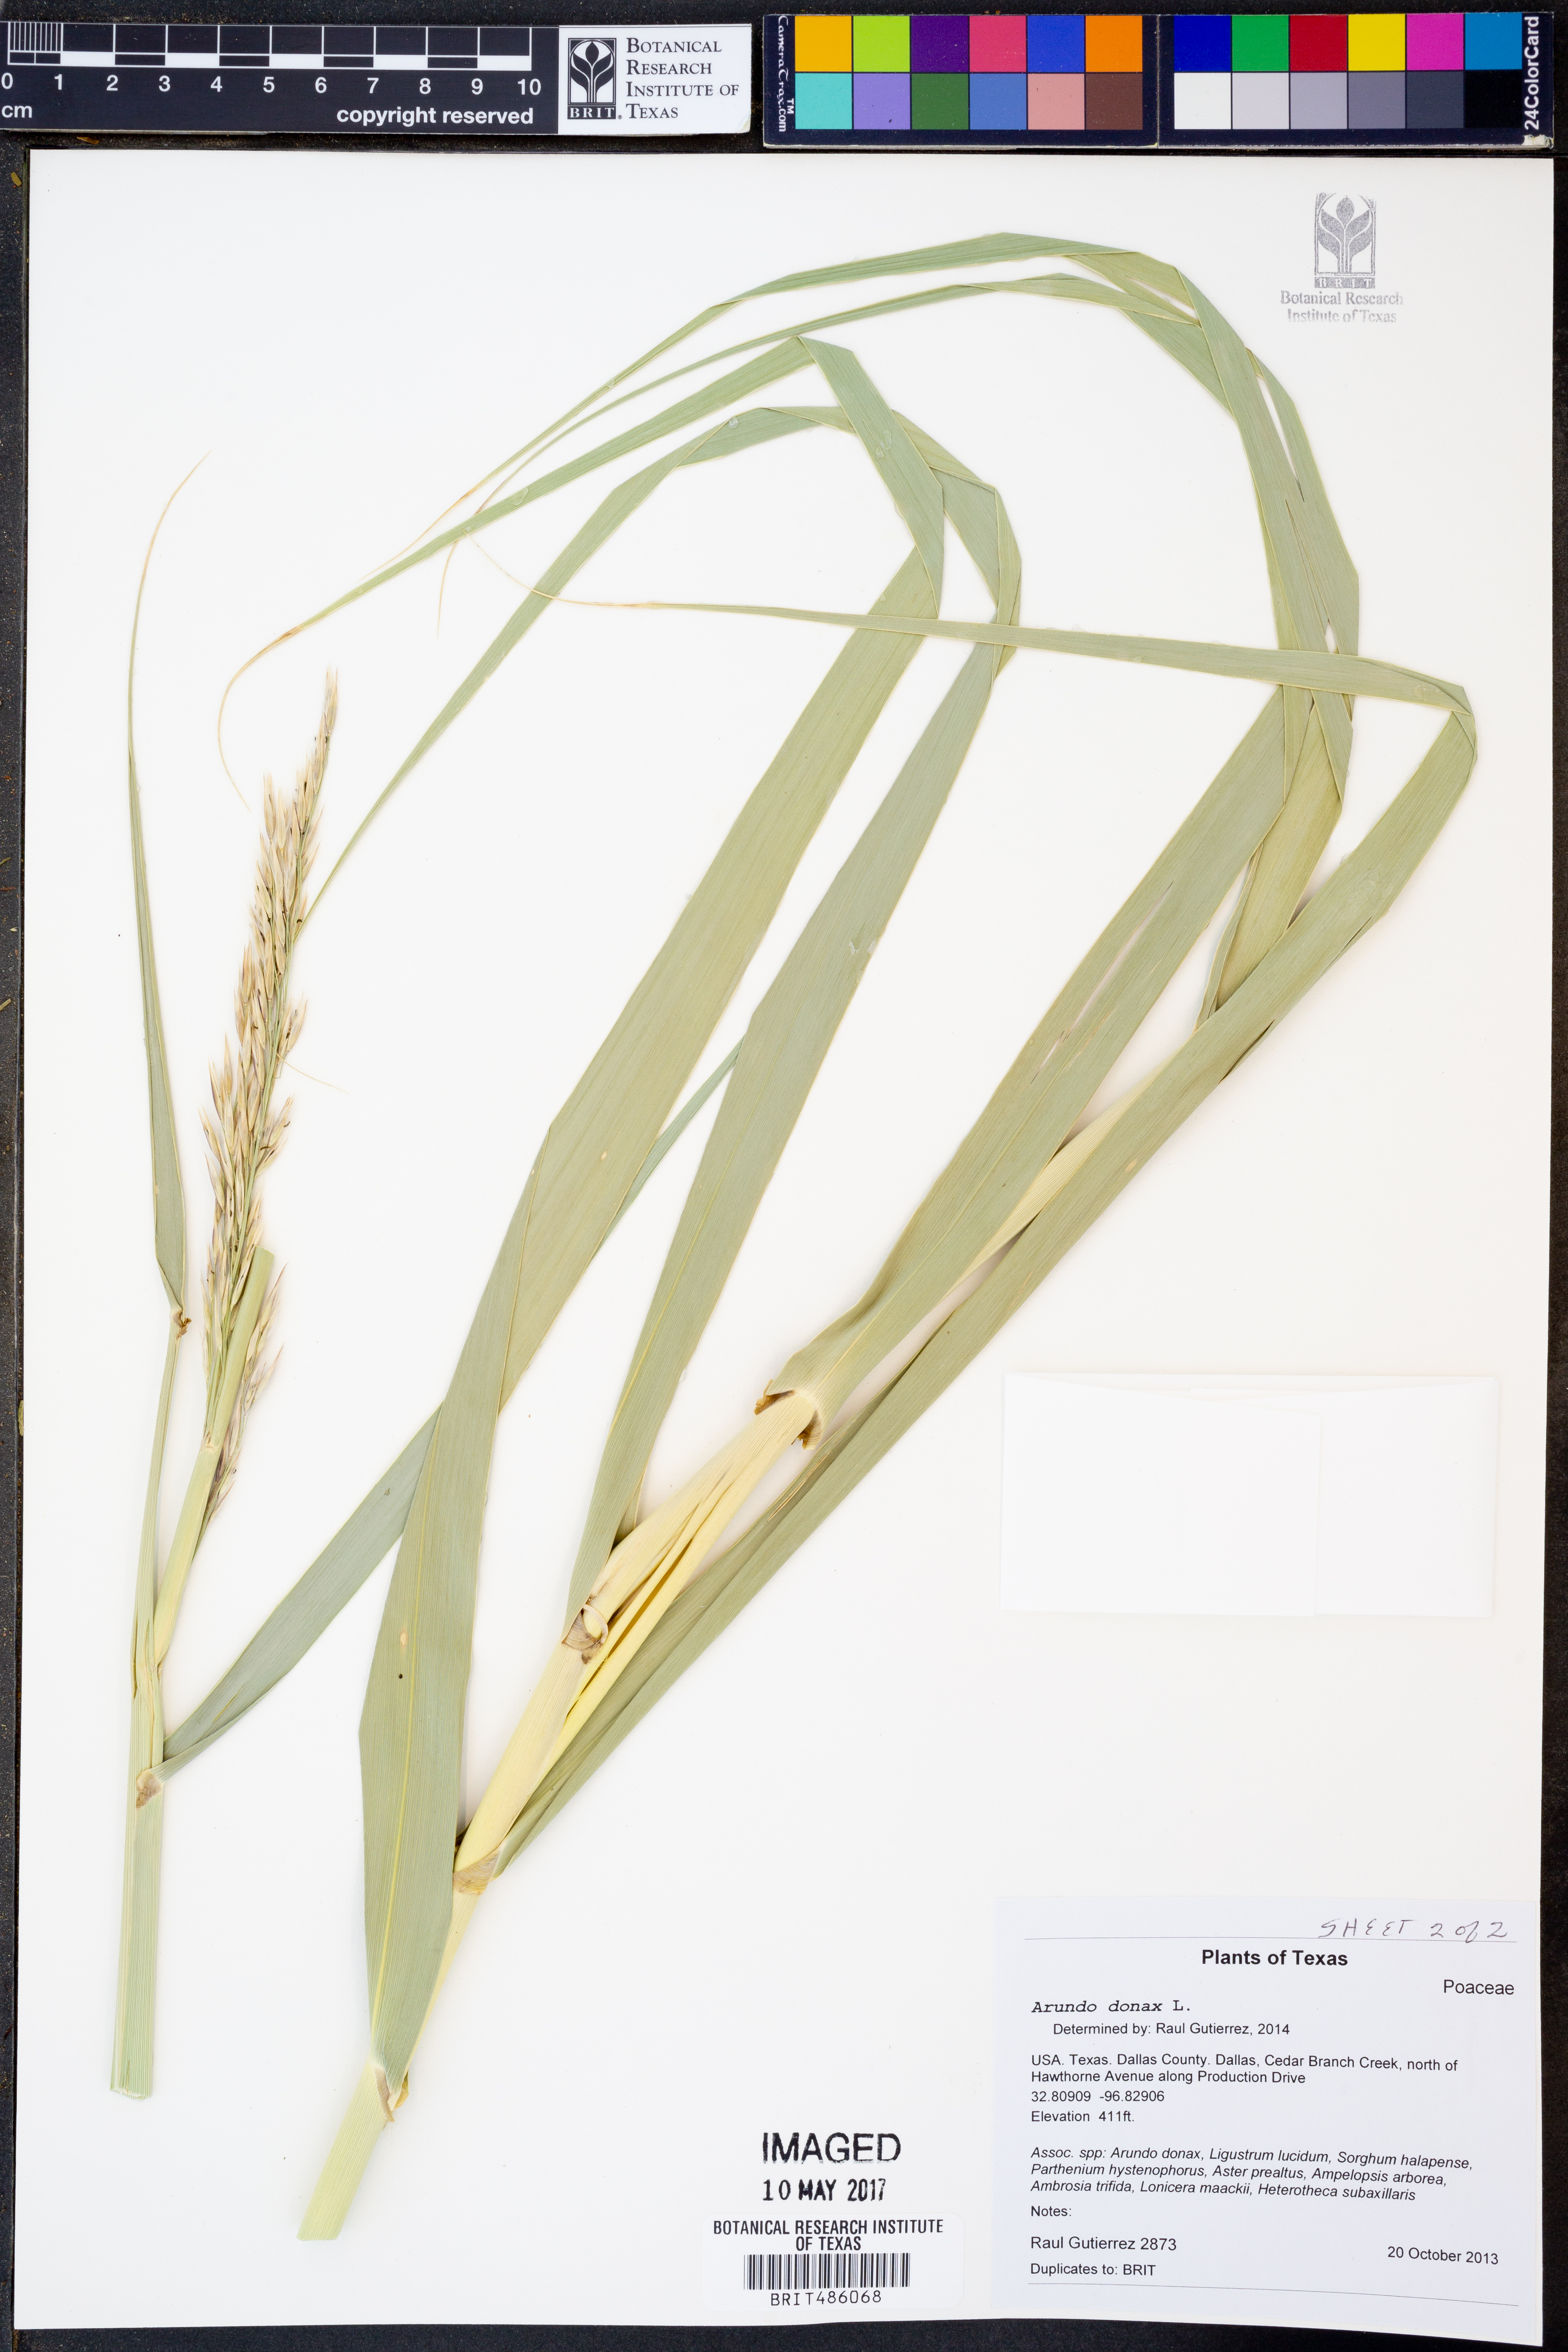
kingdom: Plantae
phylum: Tracheophyta
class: Liliopsida
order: Poales
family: Poaceae
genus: Arundo
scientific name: Arundo donax
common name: Giant reed
